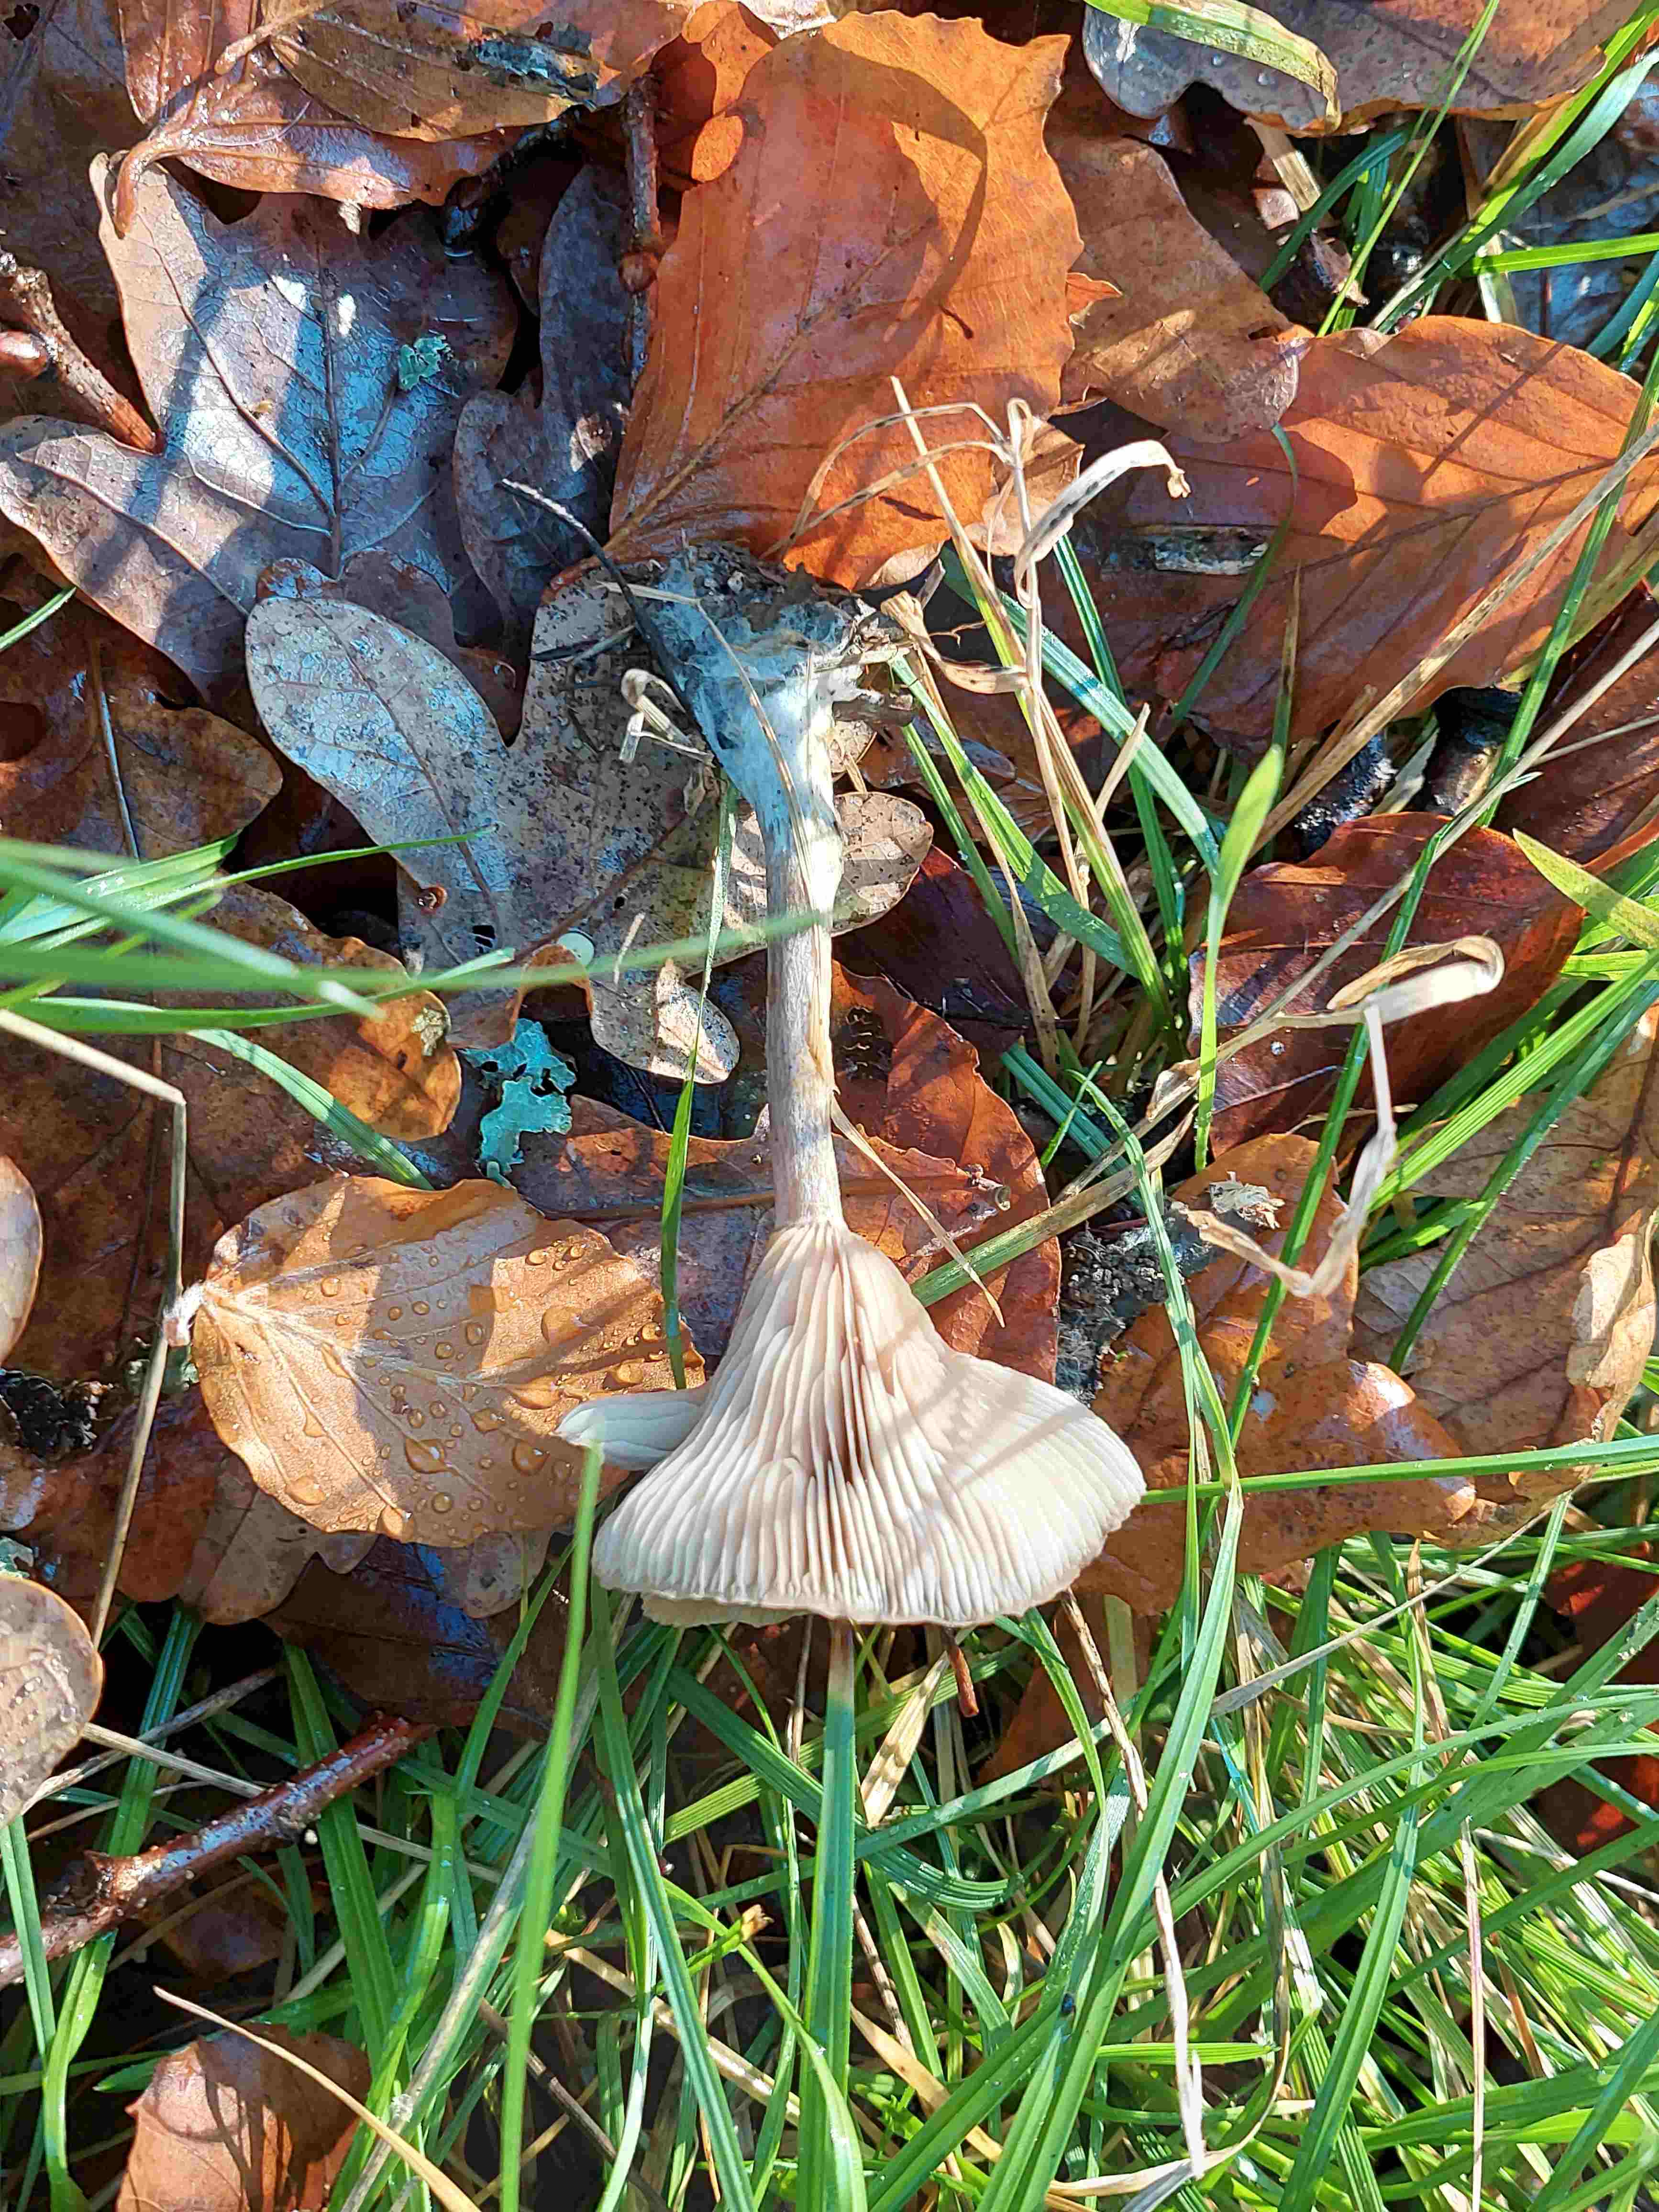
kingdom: Fungi
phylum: Basidiomycota
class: Agaricomycetes
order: Agaricales
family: Pseudoclitocybaceae
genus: Pseudoclitocybe
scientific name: Pseudoclitocybe cyathiformis
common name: almindelig bægertragthat
